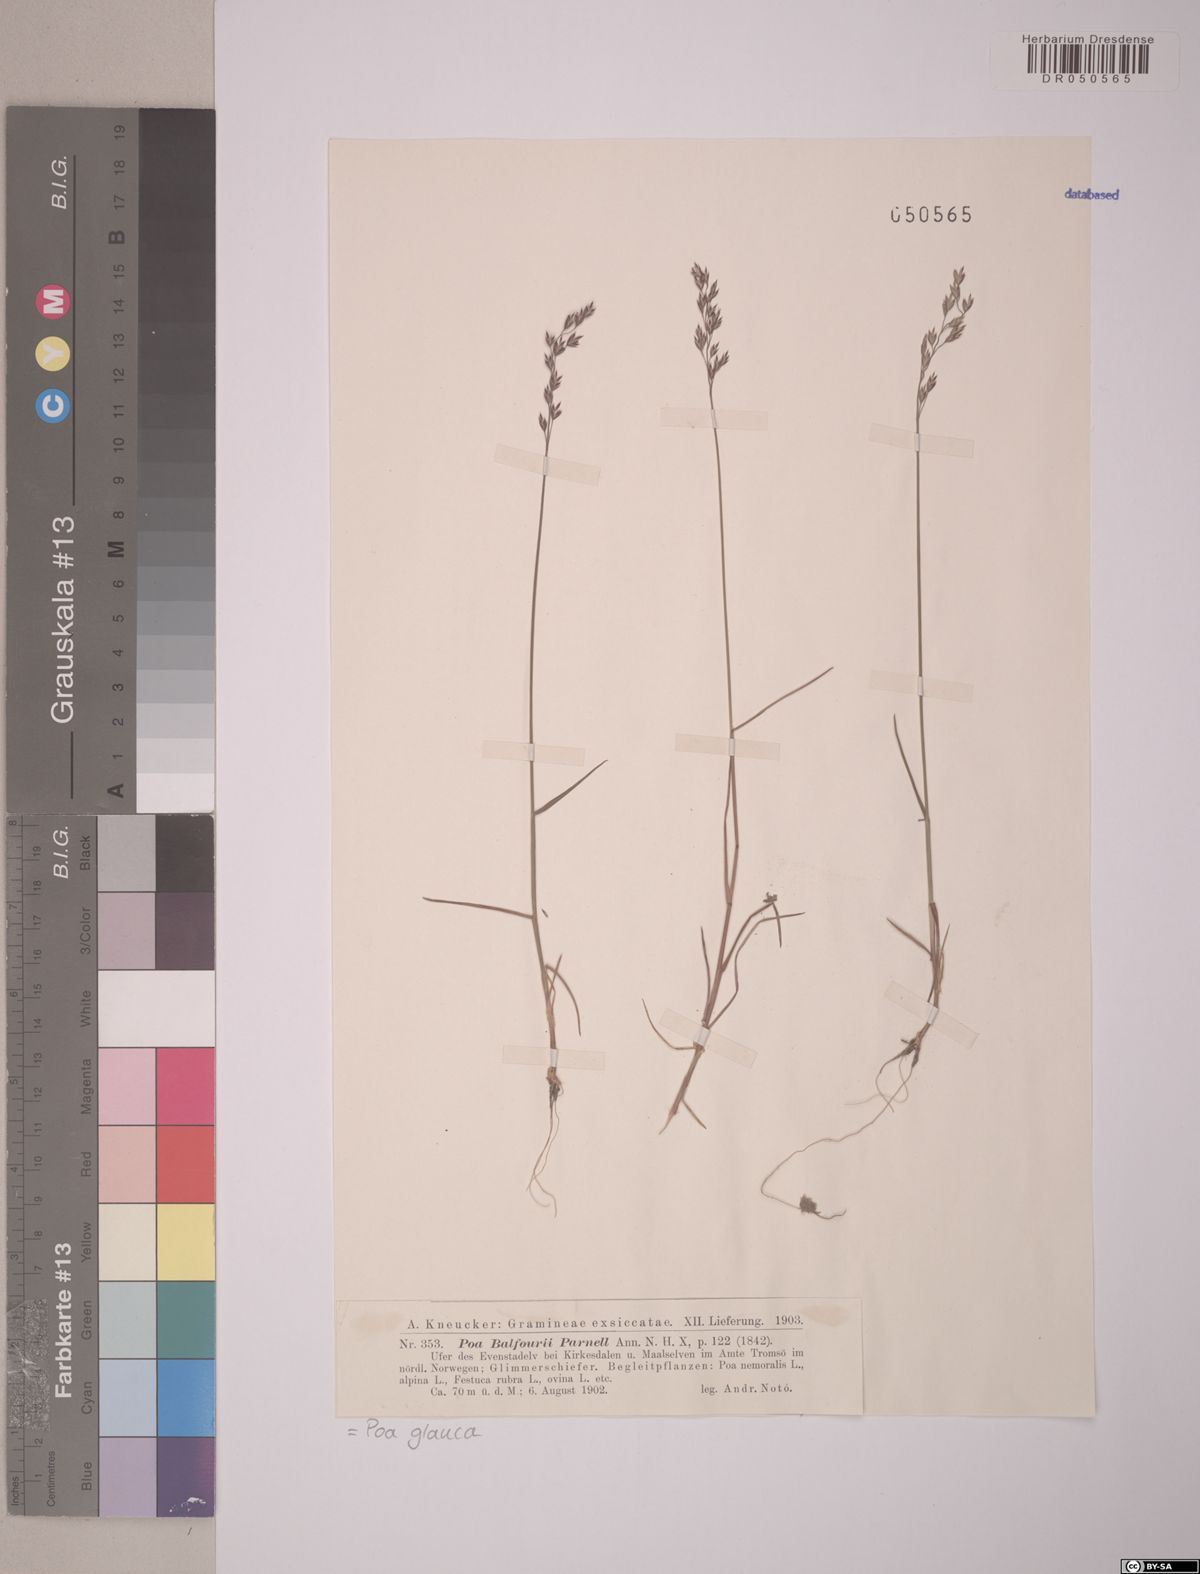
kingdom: Plantae
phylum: Tracheophyta
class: Liliopsida
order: Poales
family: Poaceae
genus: Poa
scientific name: Poa glauca
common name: Glaucous bluegrass
